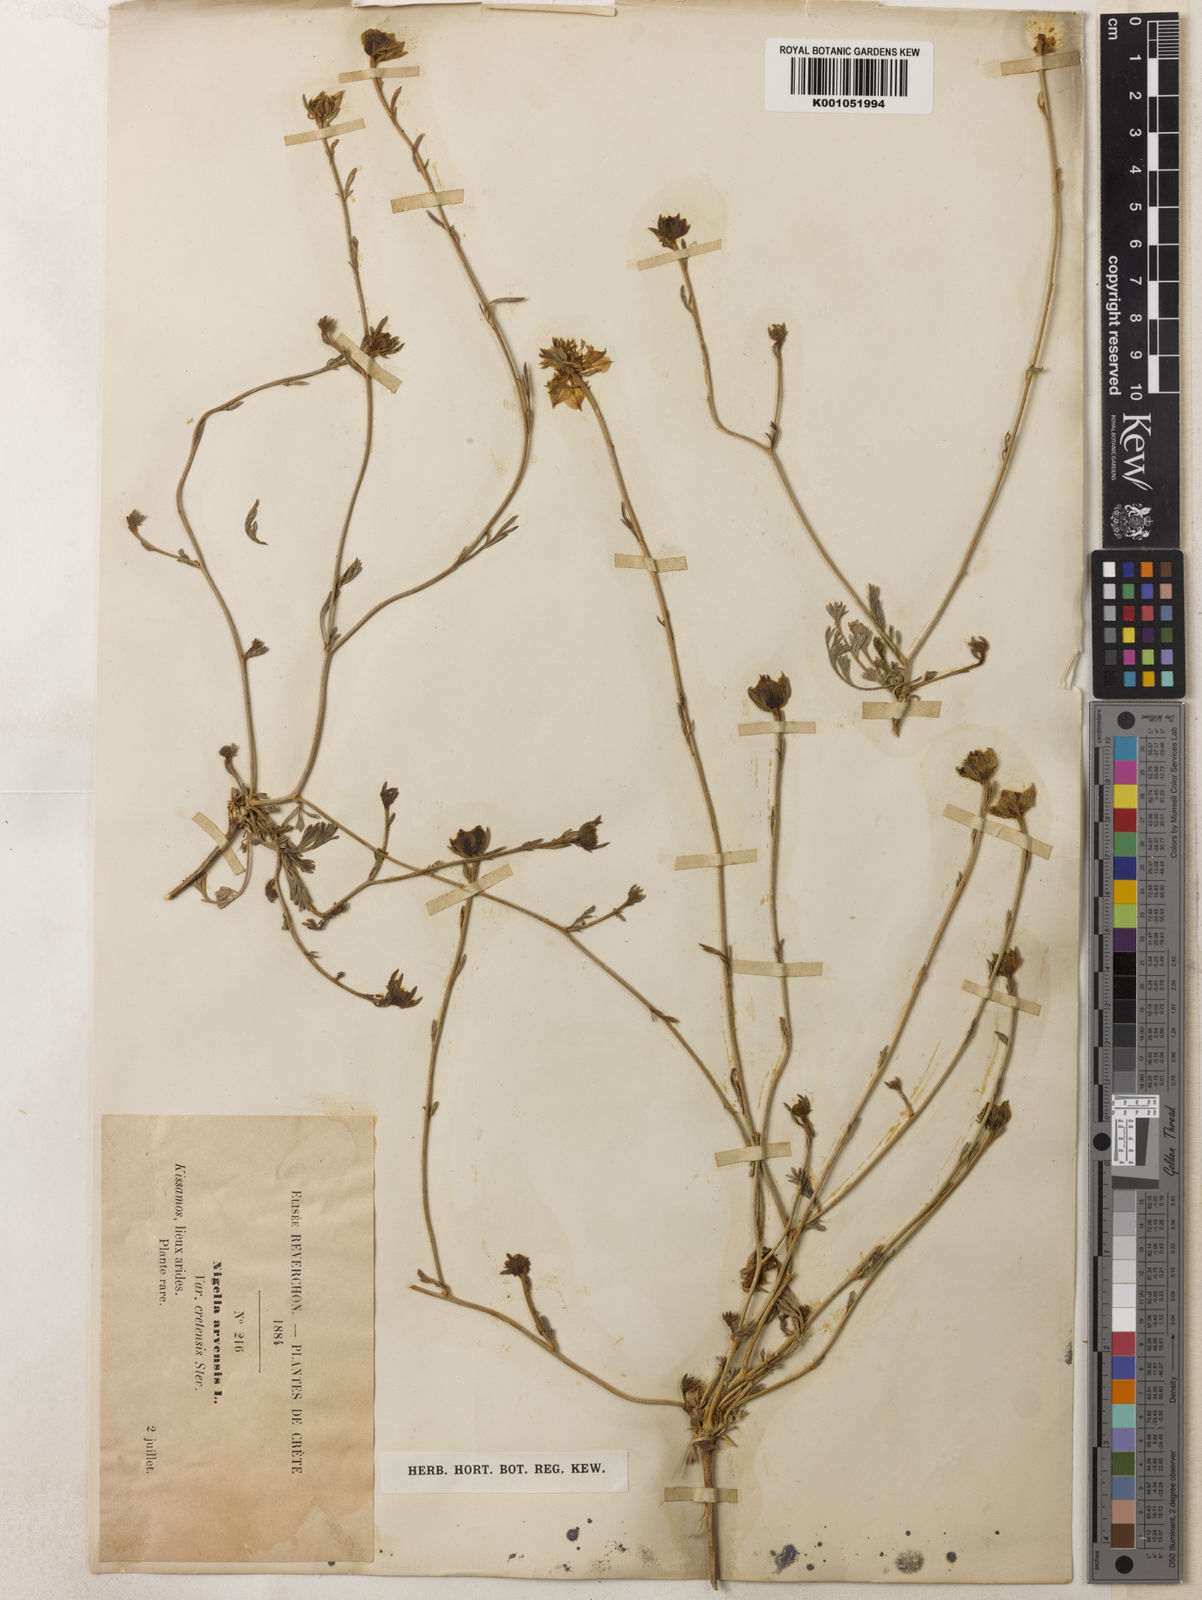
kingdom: Plantae
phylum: Tracheophyta
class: Magnoliopsida
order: Ranunculales
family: Ranunculaceae
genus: Nigella
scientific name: Nigella arvensis
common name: Wild fennel-flower
